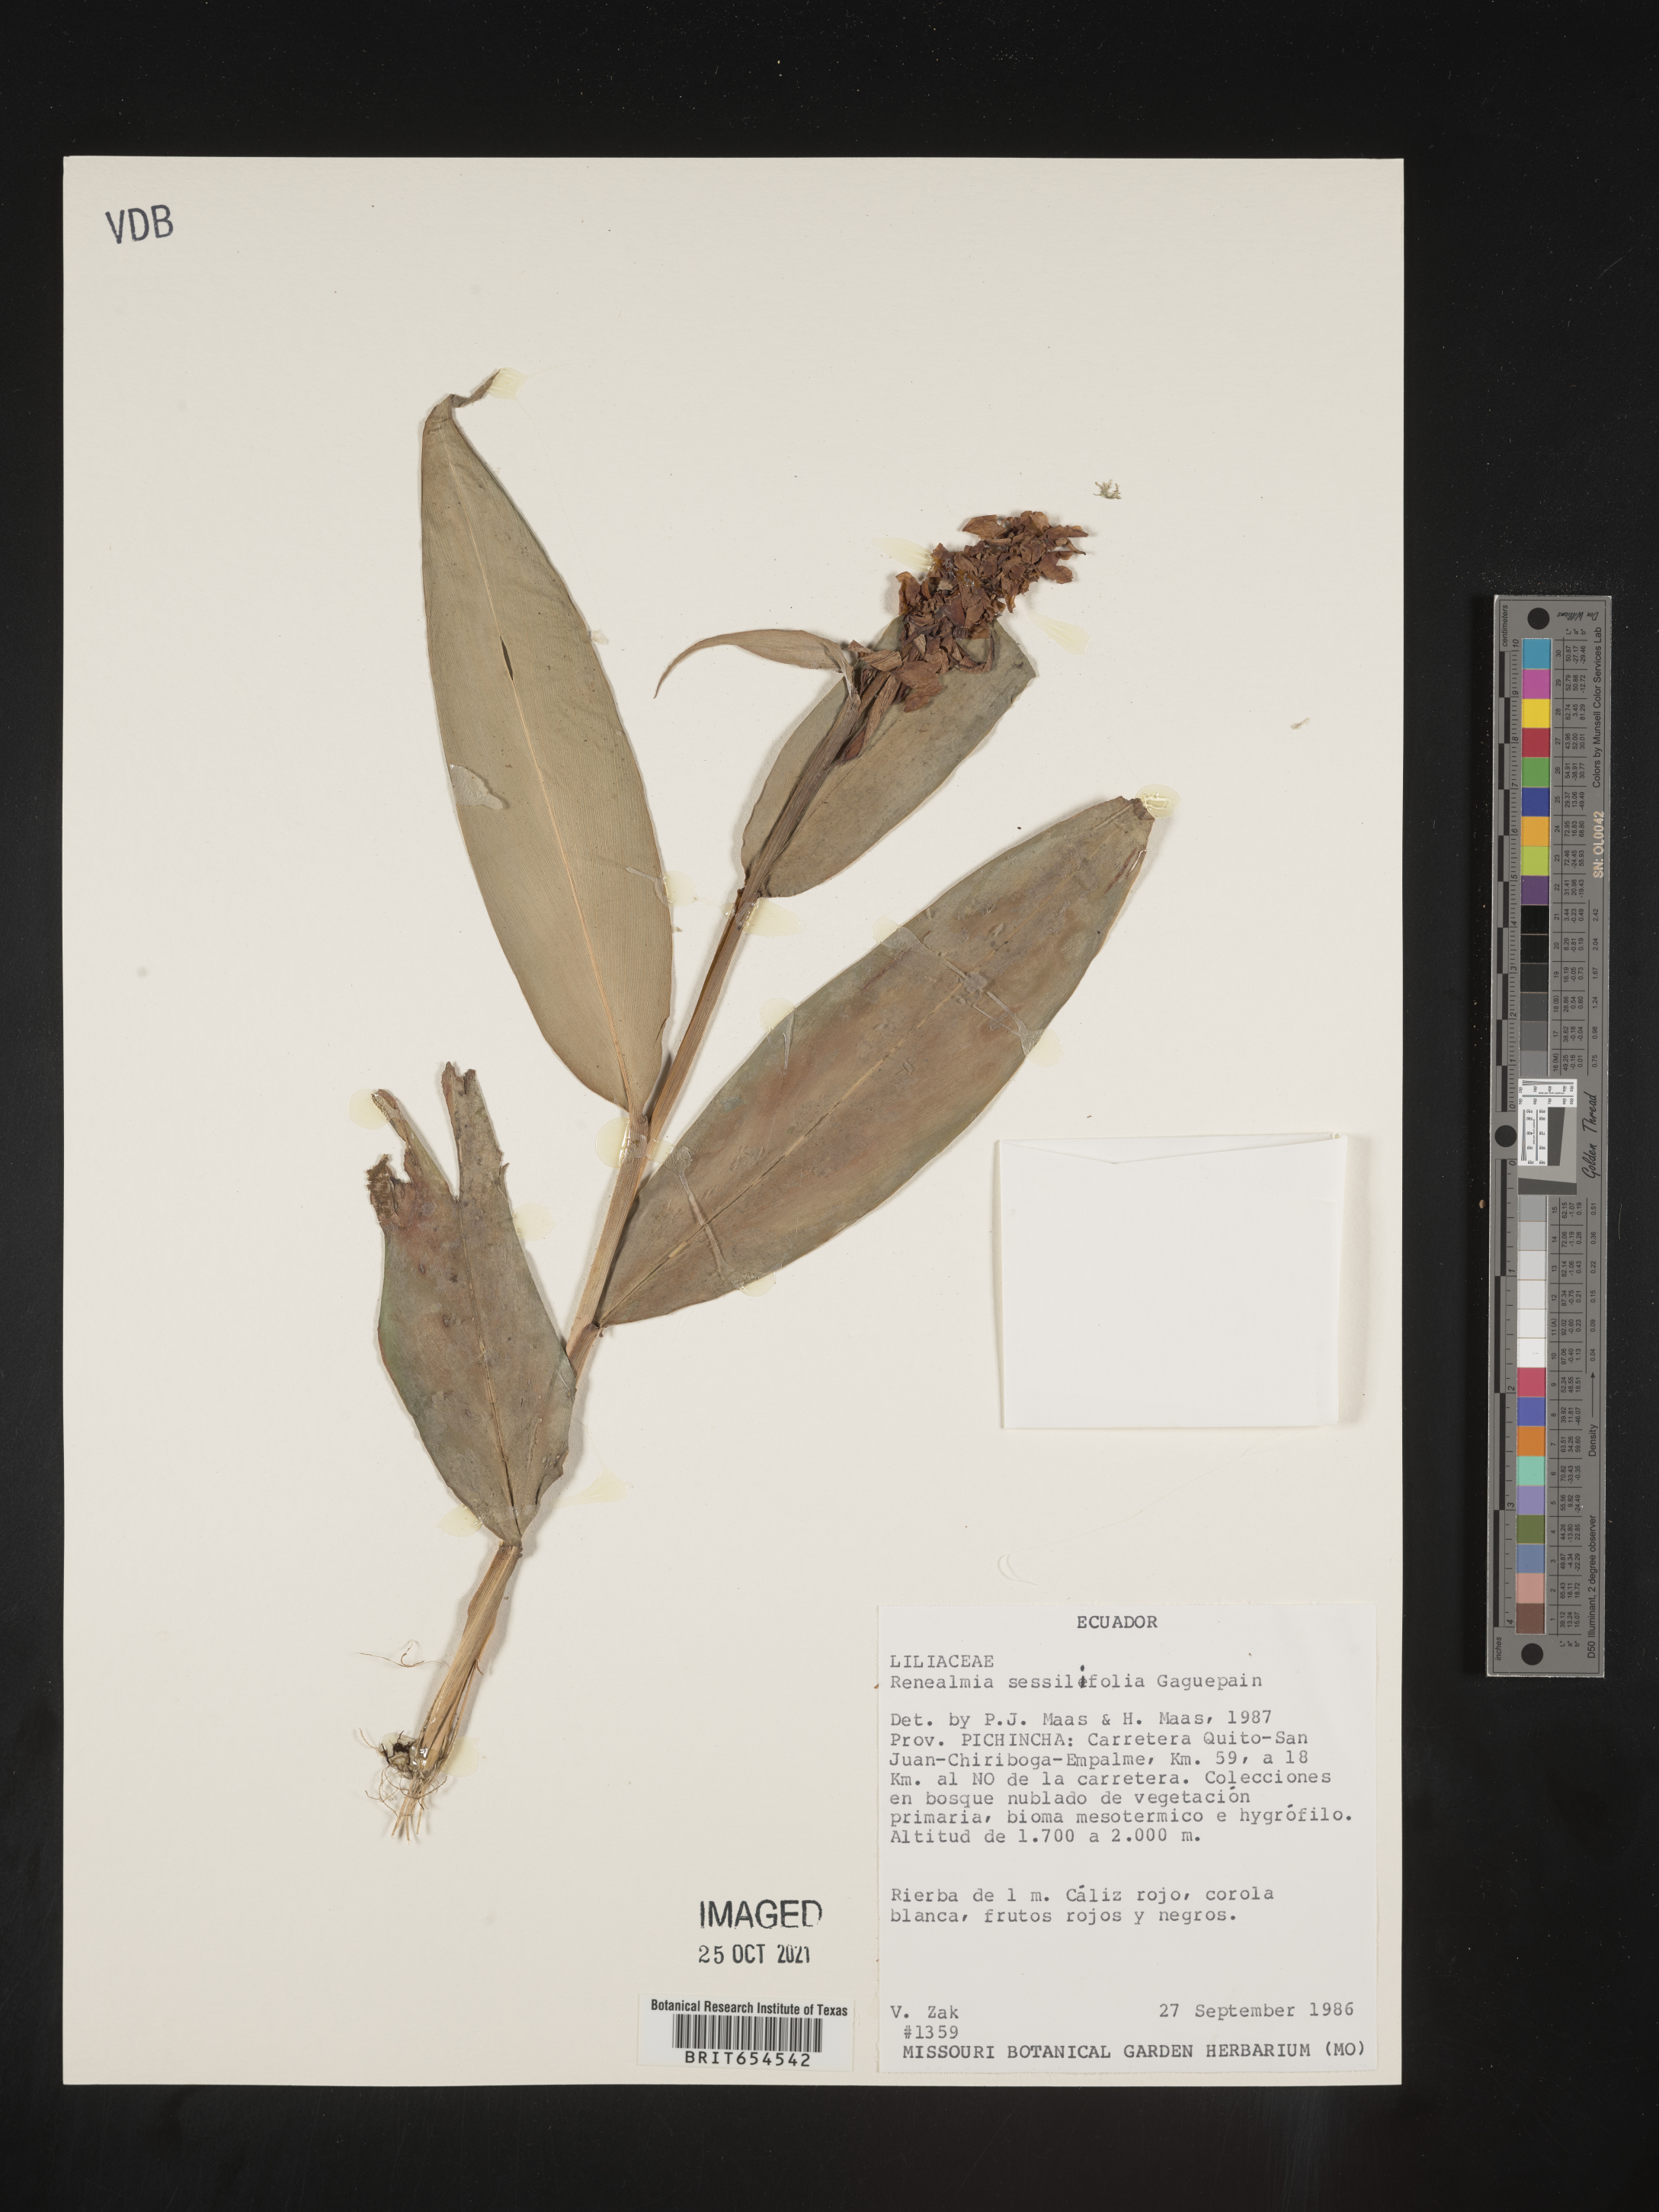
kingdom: Plantae
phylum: Tracheophyta
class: Liliopsida
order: Zingiberales
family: Zingiberaceae
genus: Renealmia
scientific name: Renealmia
